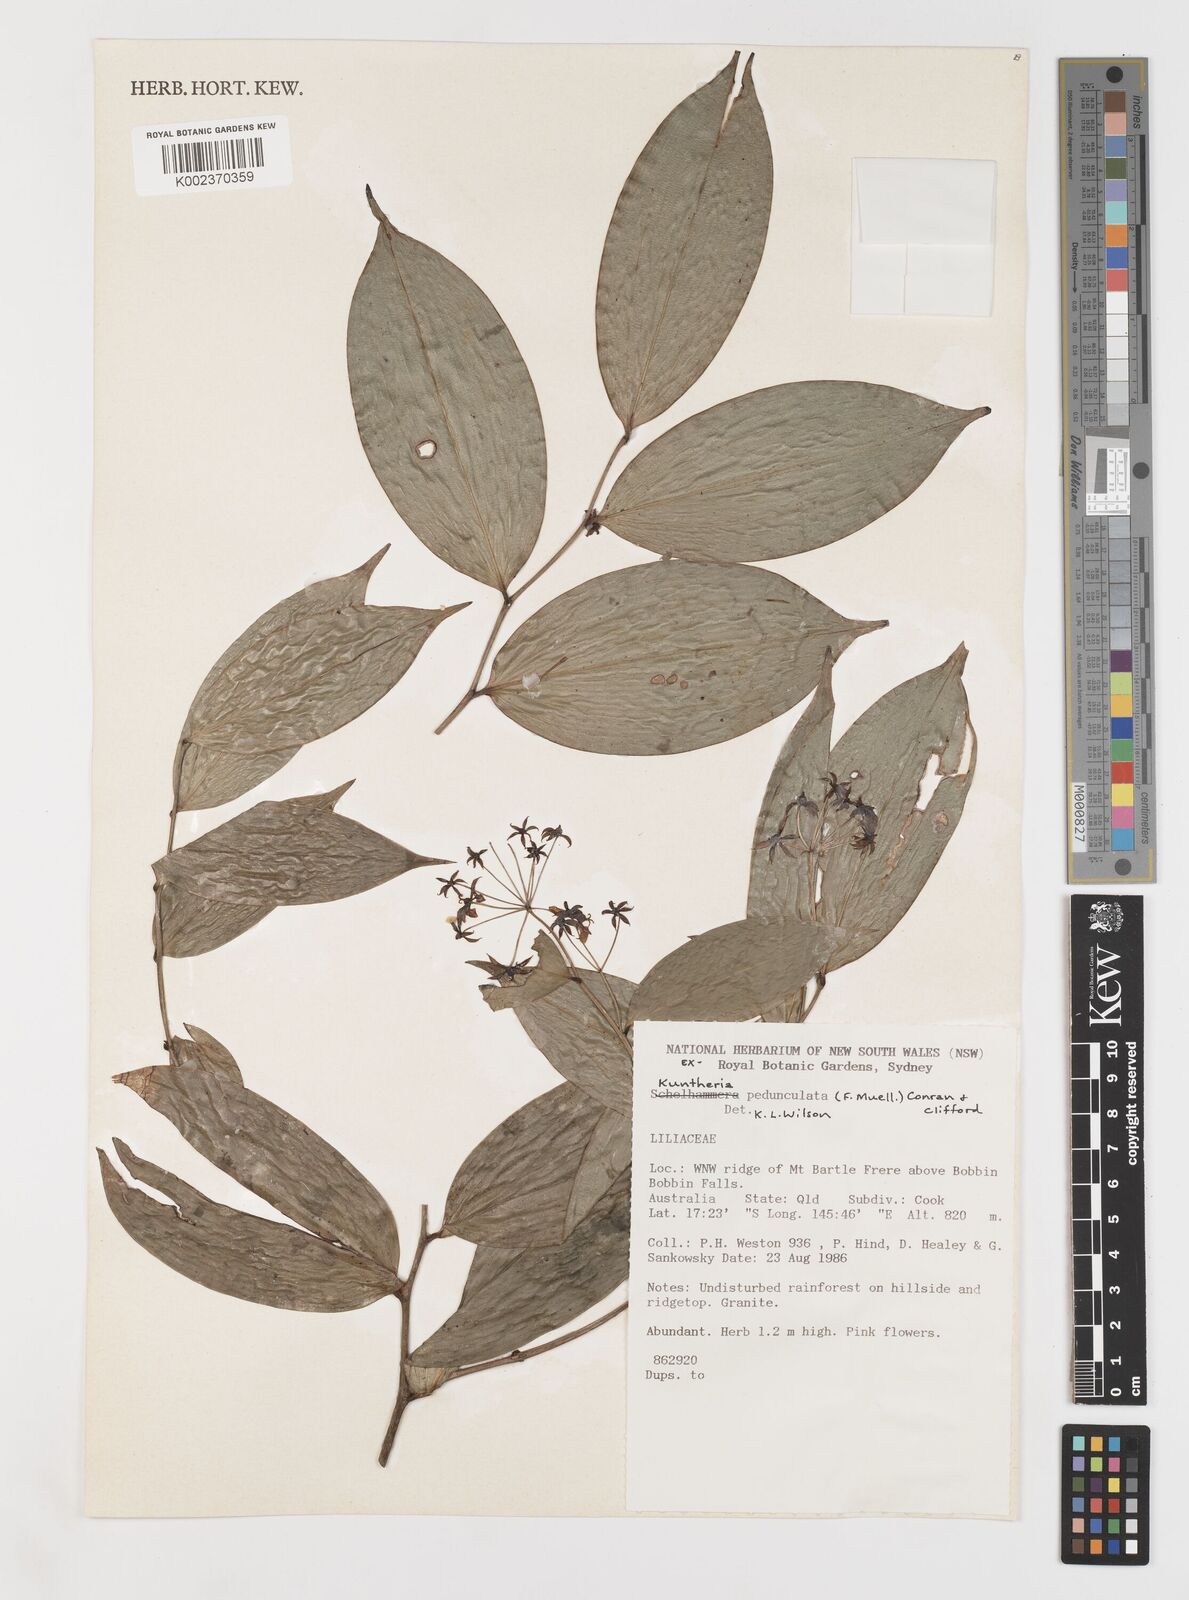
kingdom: Plantae
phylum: Tracheophyta
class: Liliopsida
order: Liliales
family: Colchicaceae
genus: Kuntheria
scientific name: Kuntheria pedunculata
